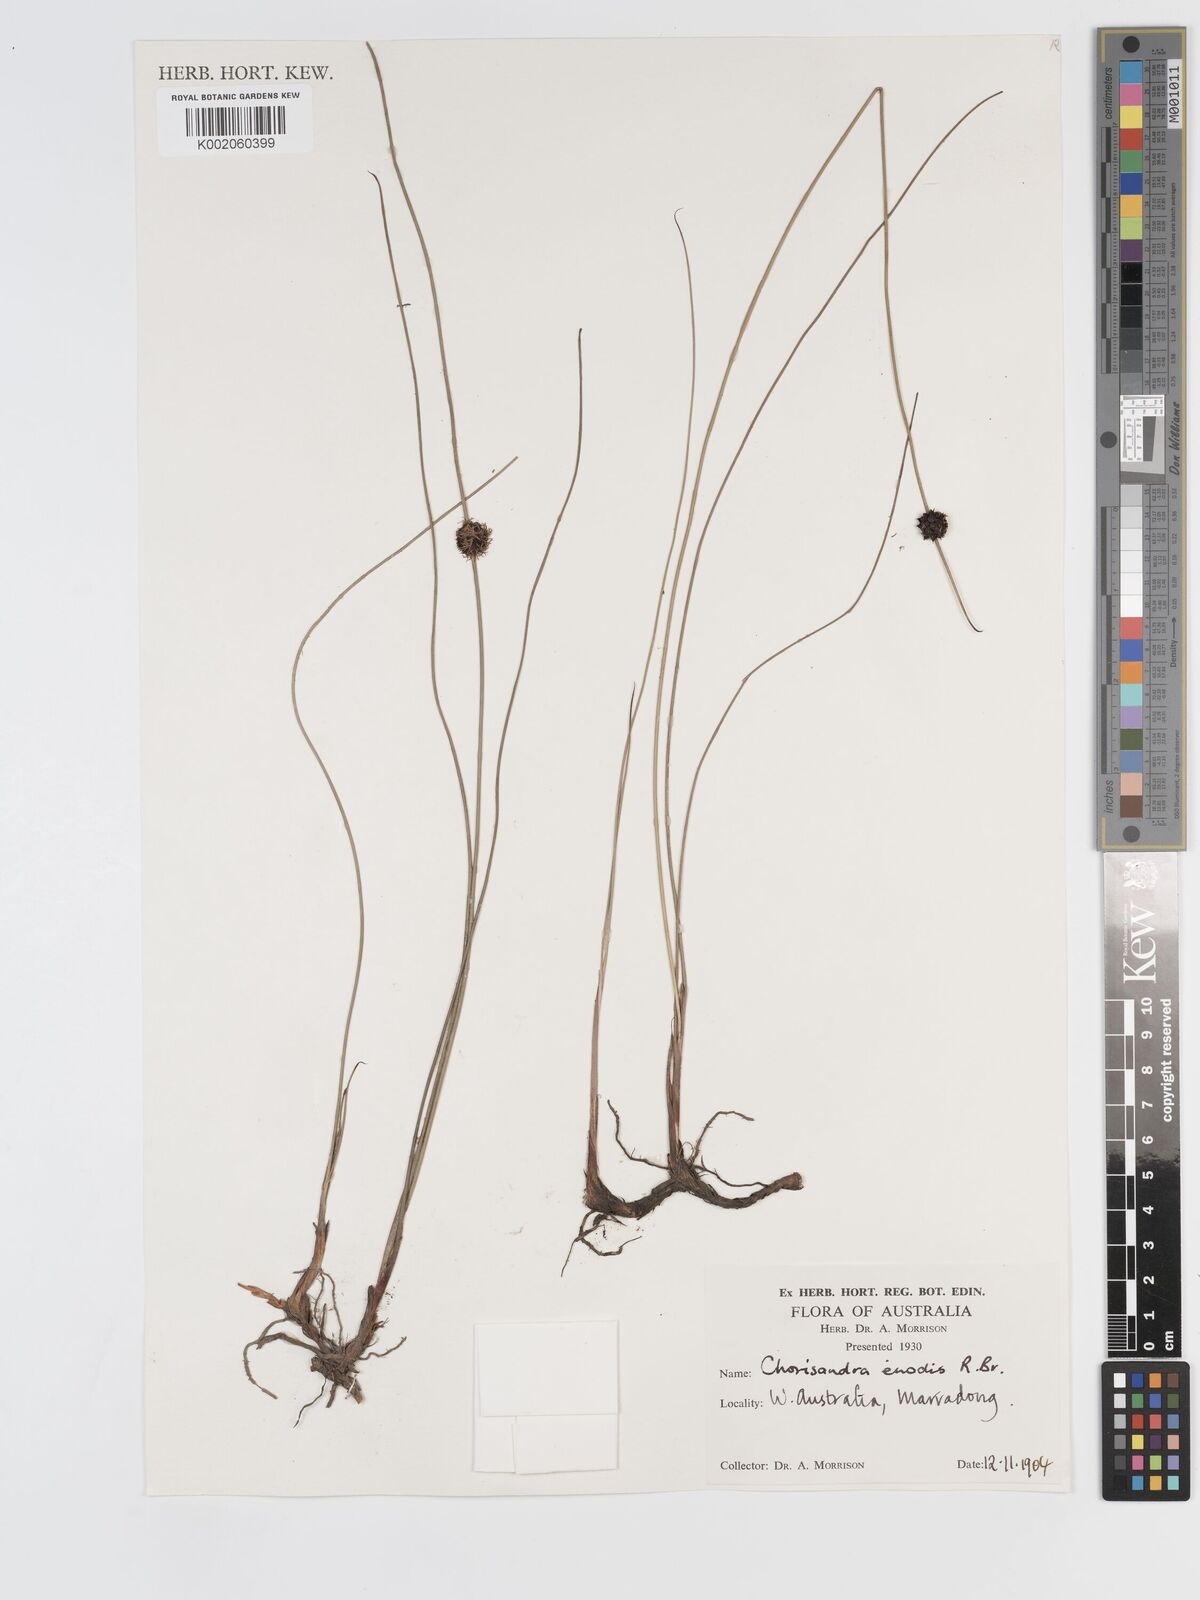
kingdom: Plantae
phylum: Tracheophyta
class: Liliopsida
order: Poales
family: Cyperaceae
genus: Chorizandra
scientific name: Chorizandra enodis
